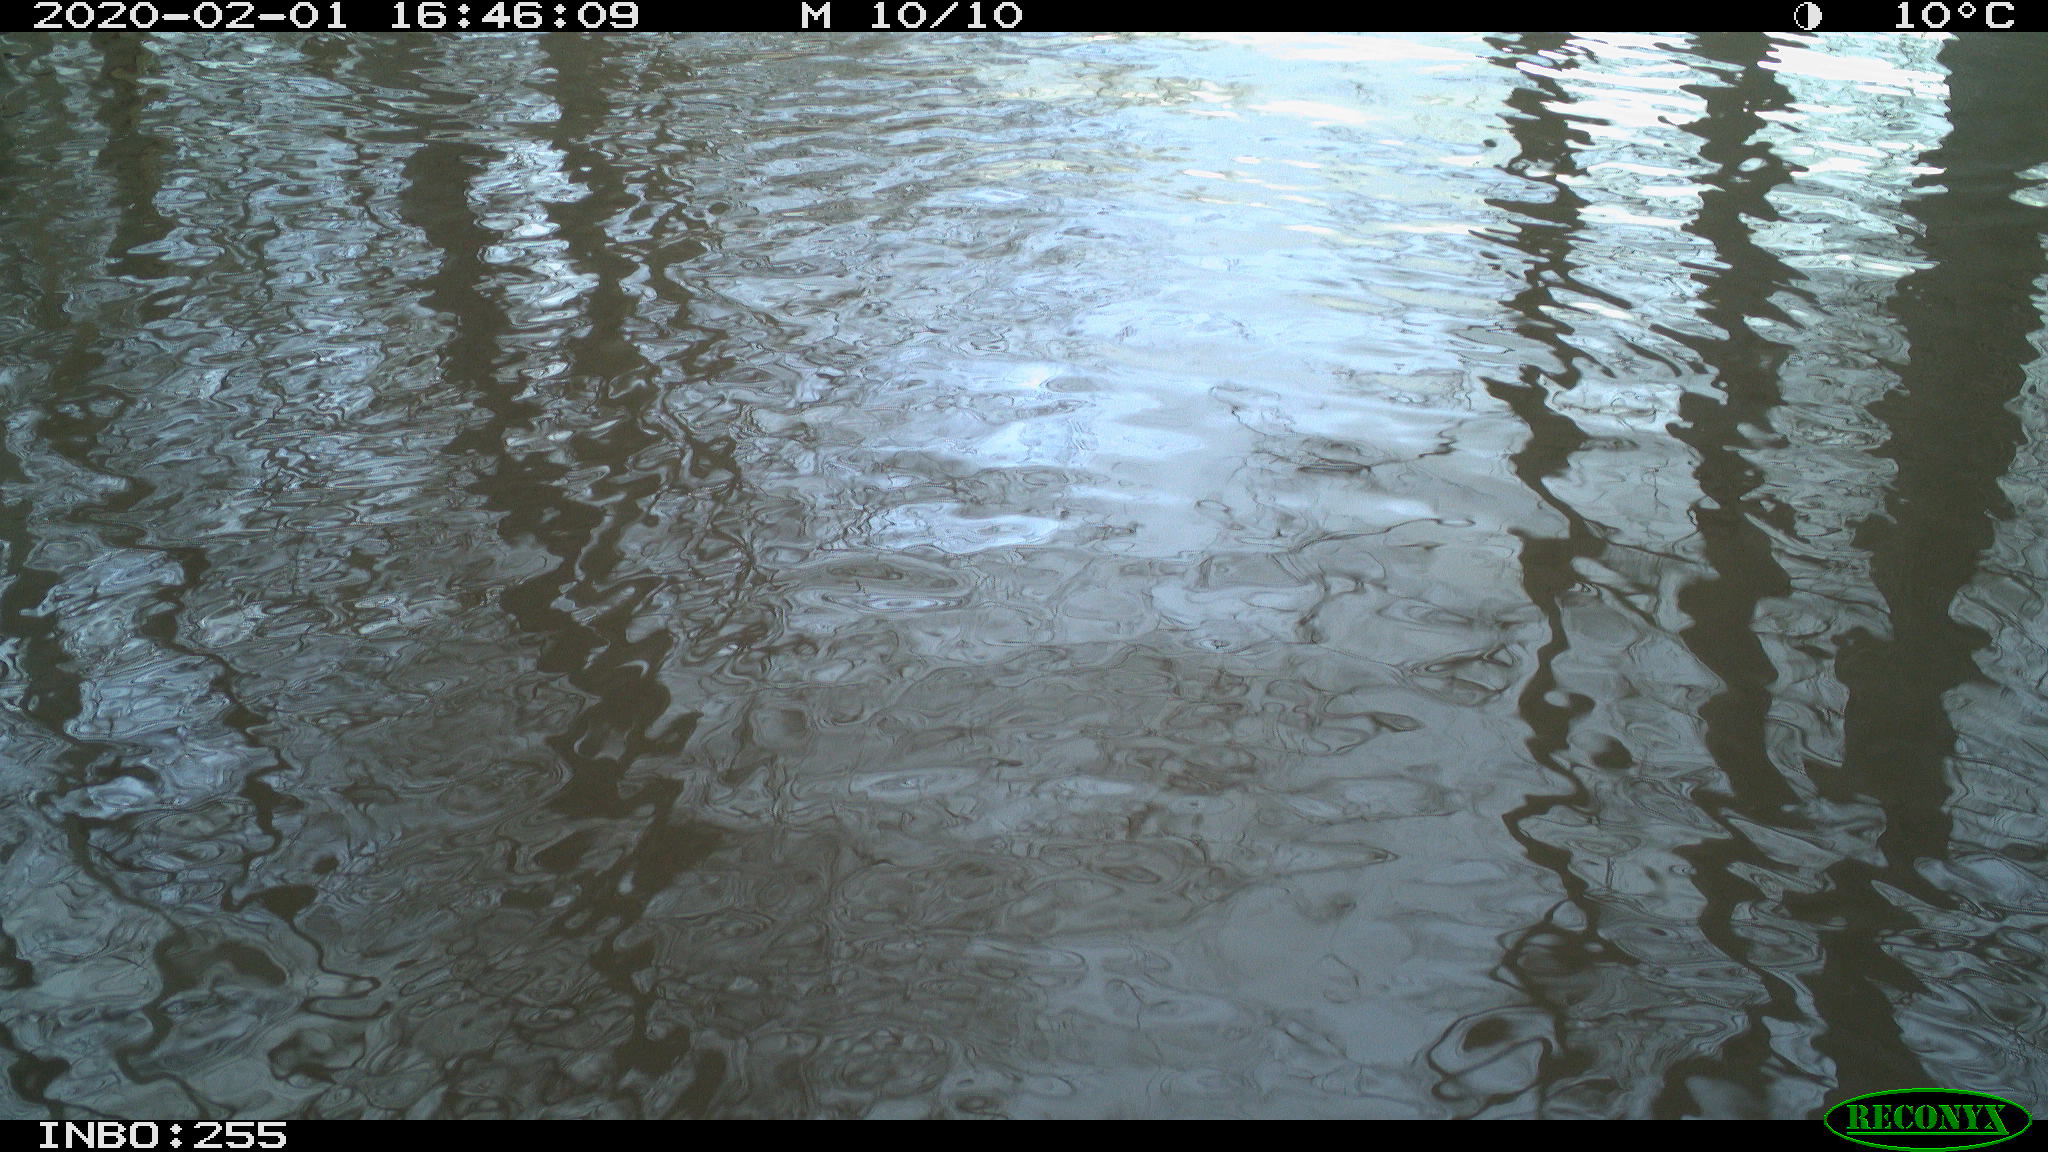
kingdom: Animalia
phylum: Chordata
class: Aves
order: Gruiformes
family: Rallidae
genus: Gallinula
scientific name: Gallinula chloropus
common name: Common moorhen
